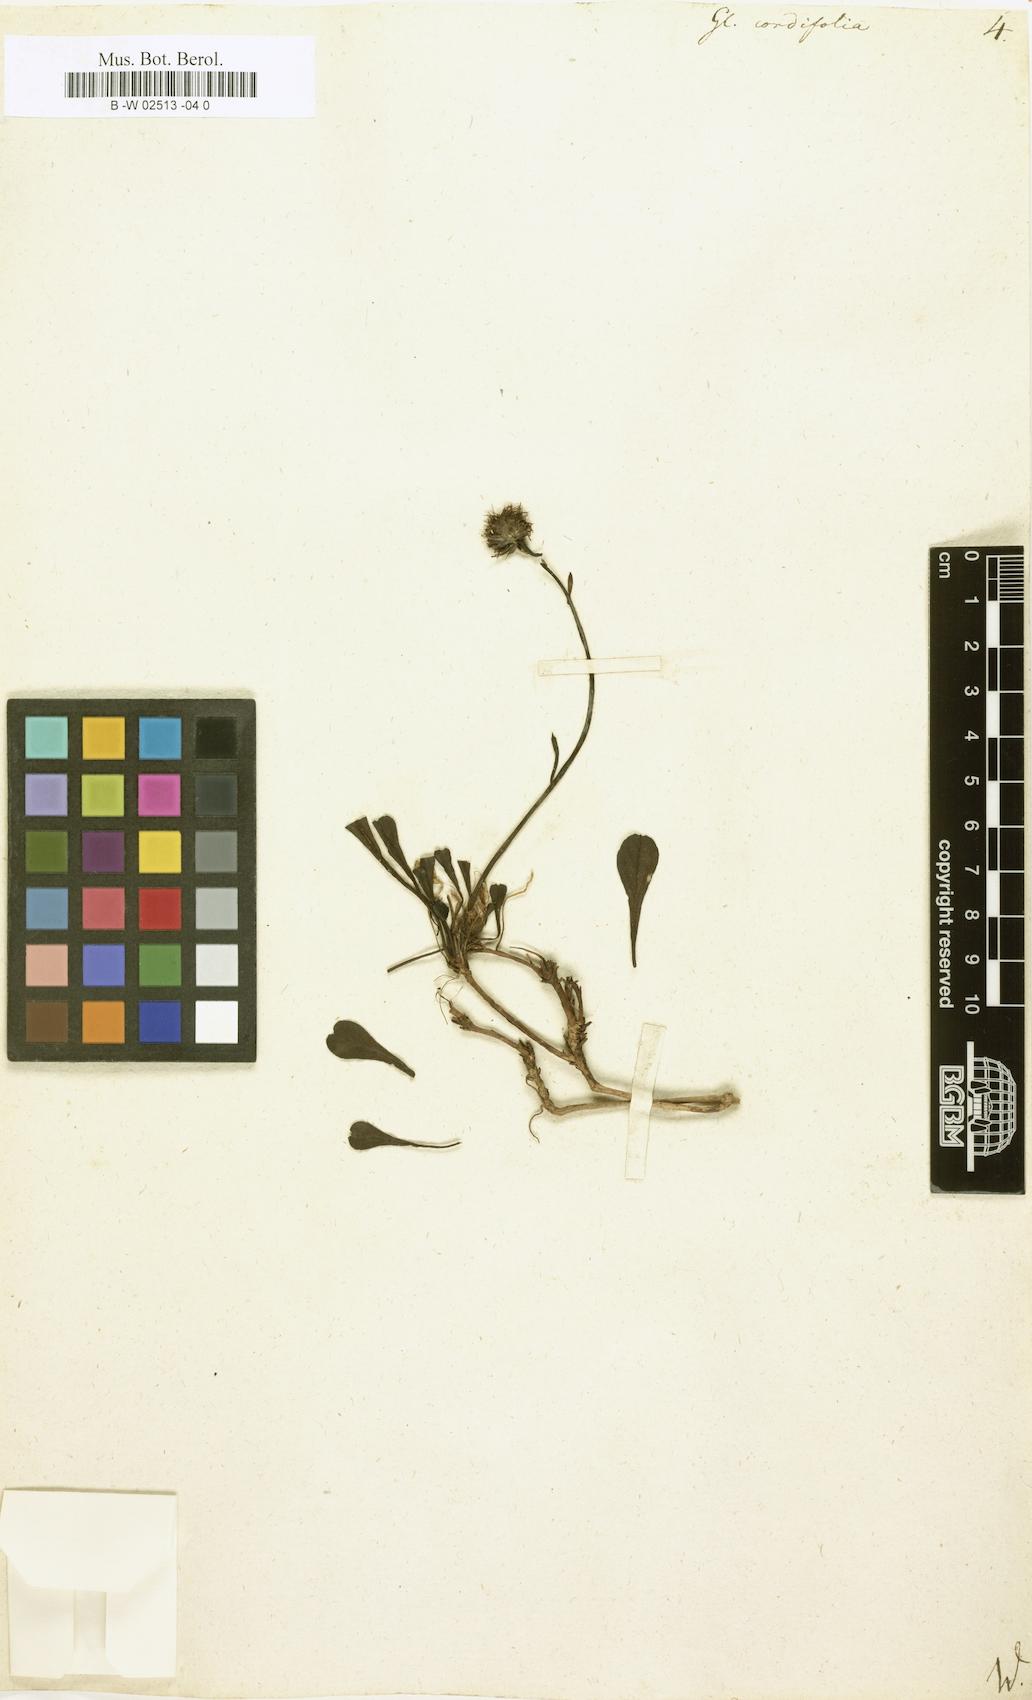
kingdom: Plantae
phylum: Tracheophyta
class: Magnoliopsida
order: Lamiales
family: Plantaginaceae
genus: Globularia
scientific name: Globularia cordifolia
